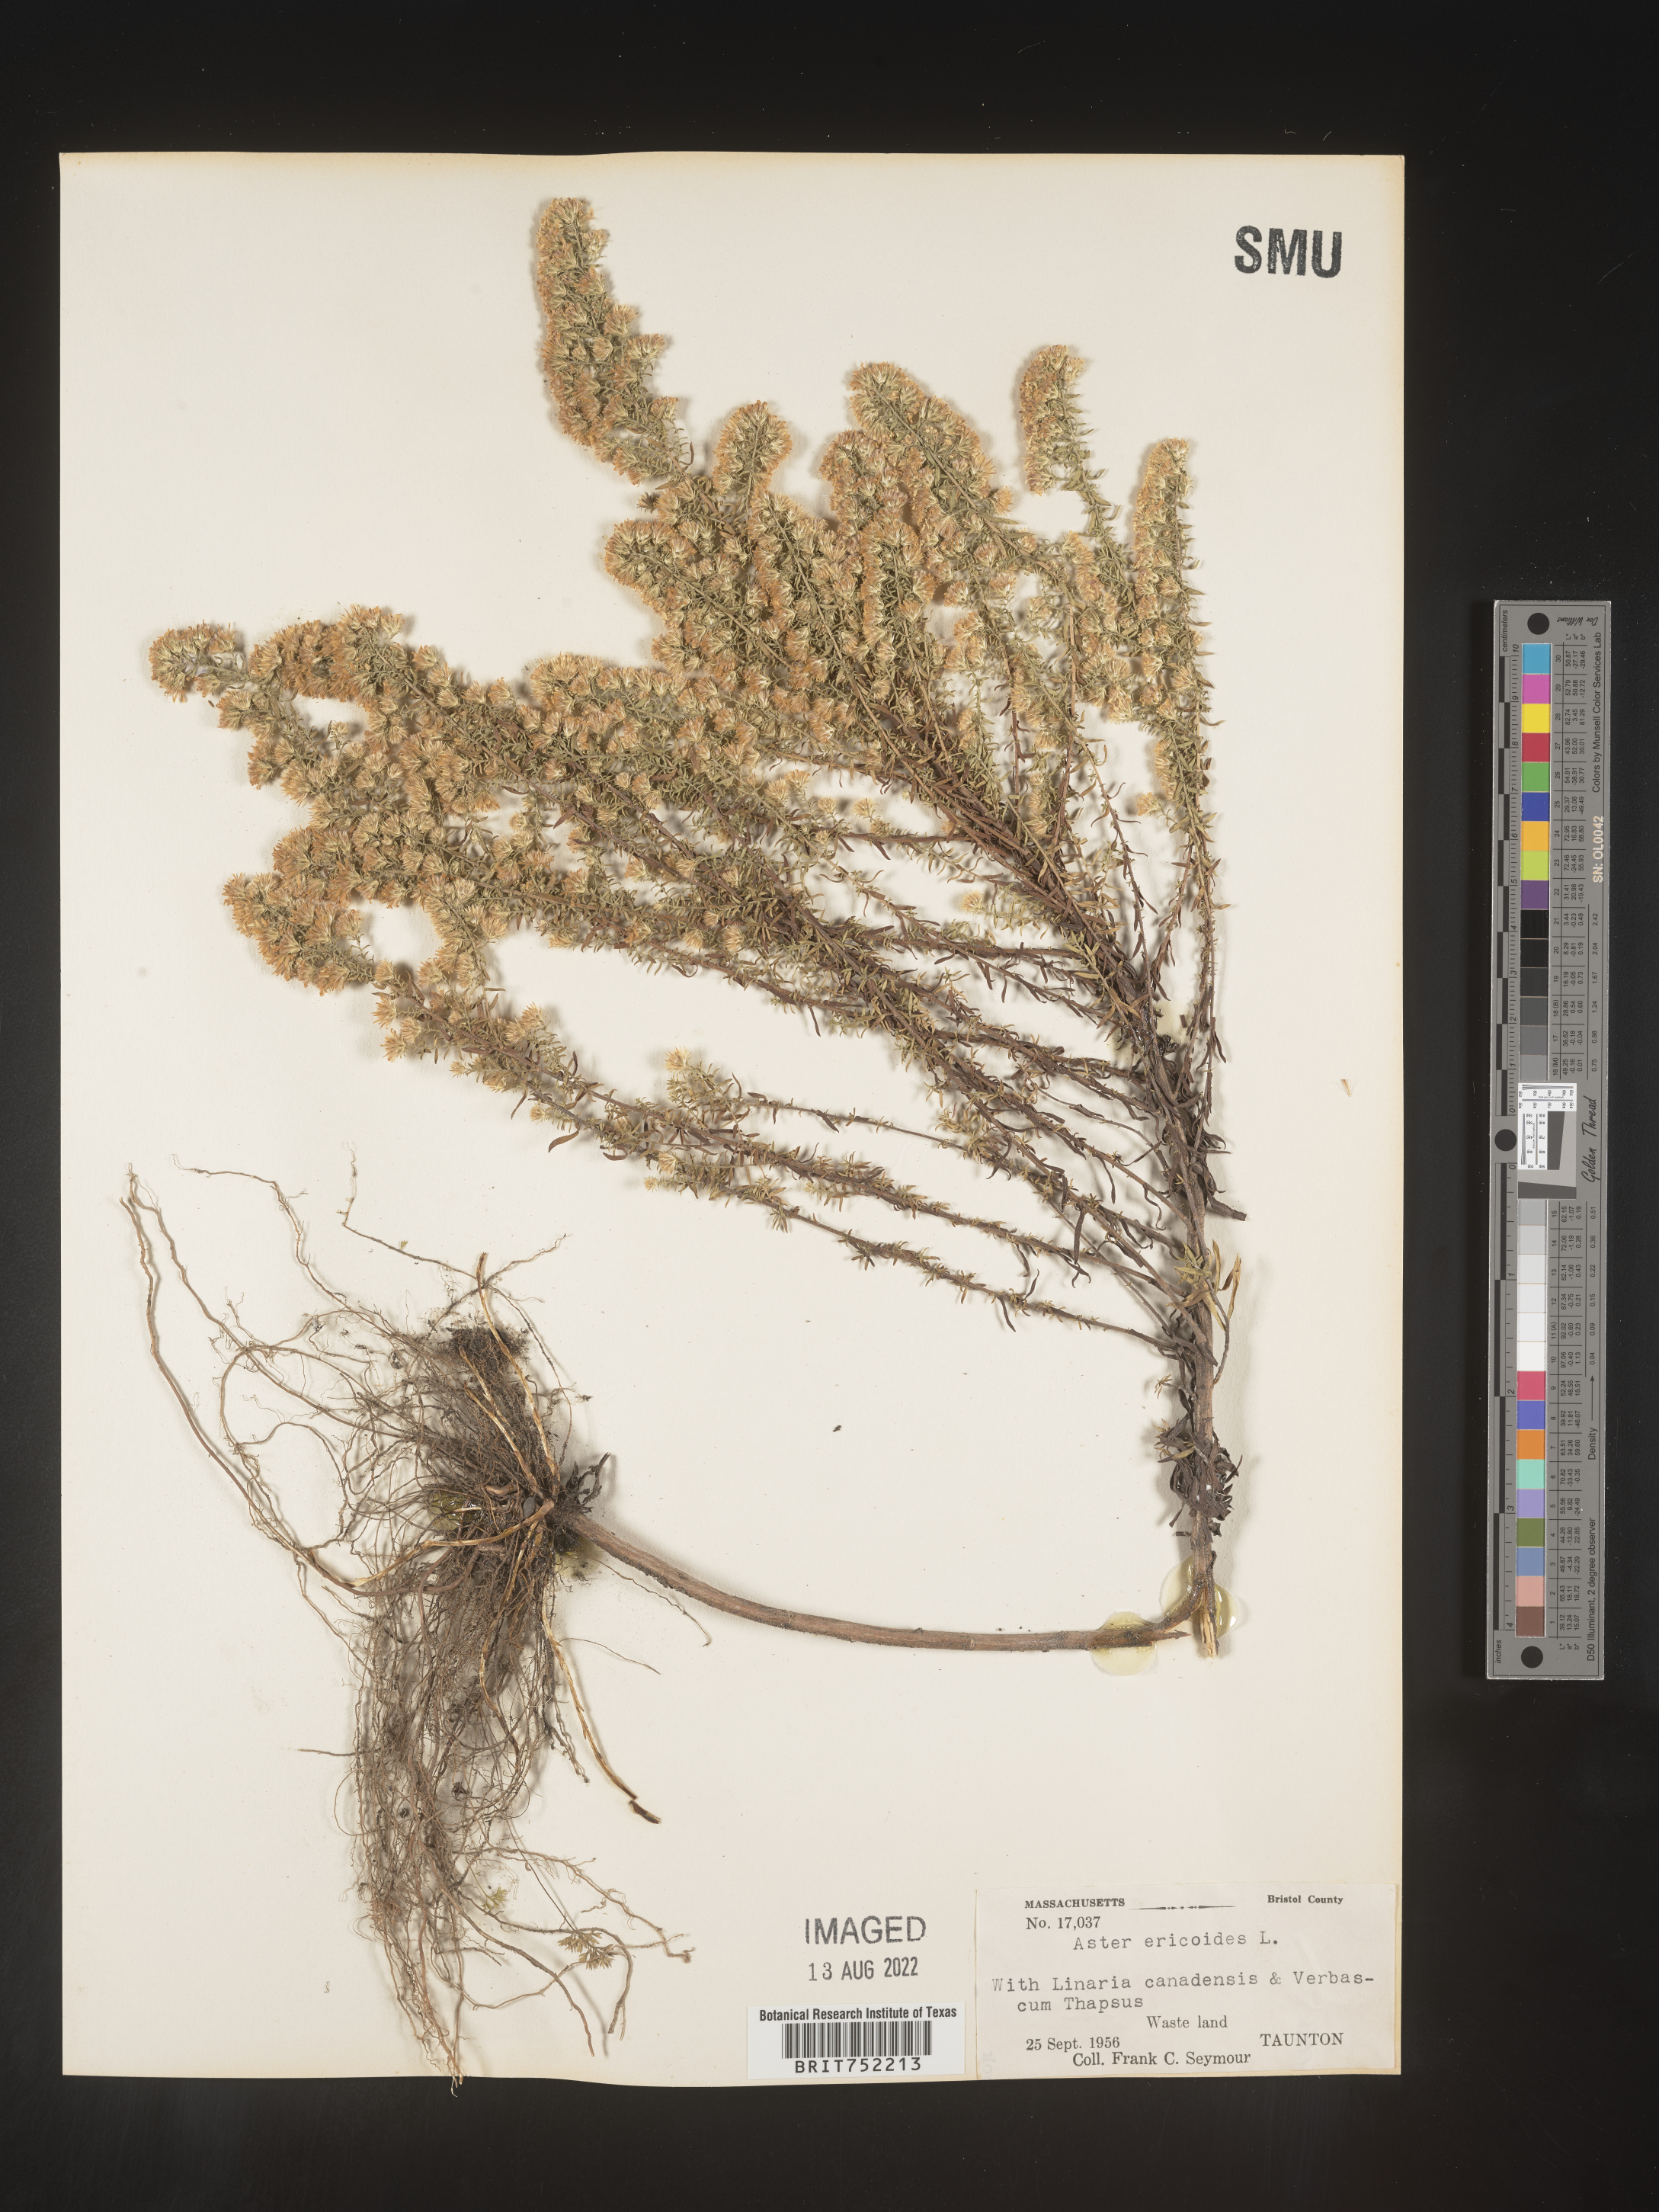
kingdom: Plantae
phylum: Tracheophyta
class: Magnoliopsida
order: Asterales
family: Asteraceae
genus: Symphyotrichum
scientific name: Symphyotrichum ericoides
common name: Heath aster
